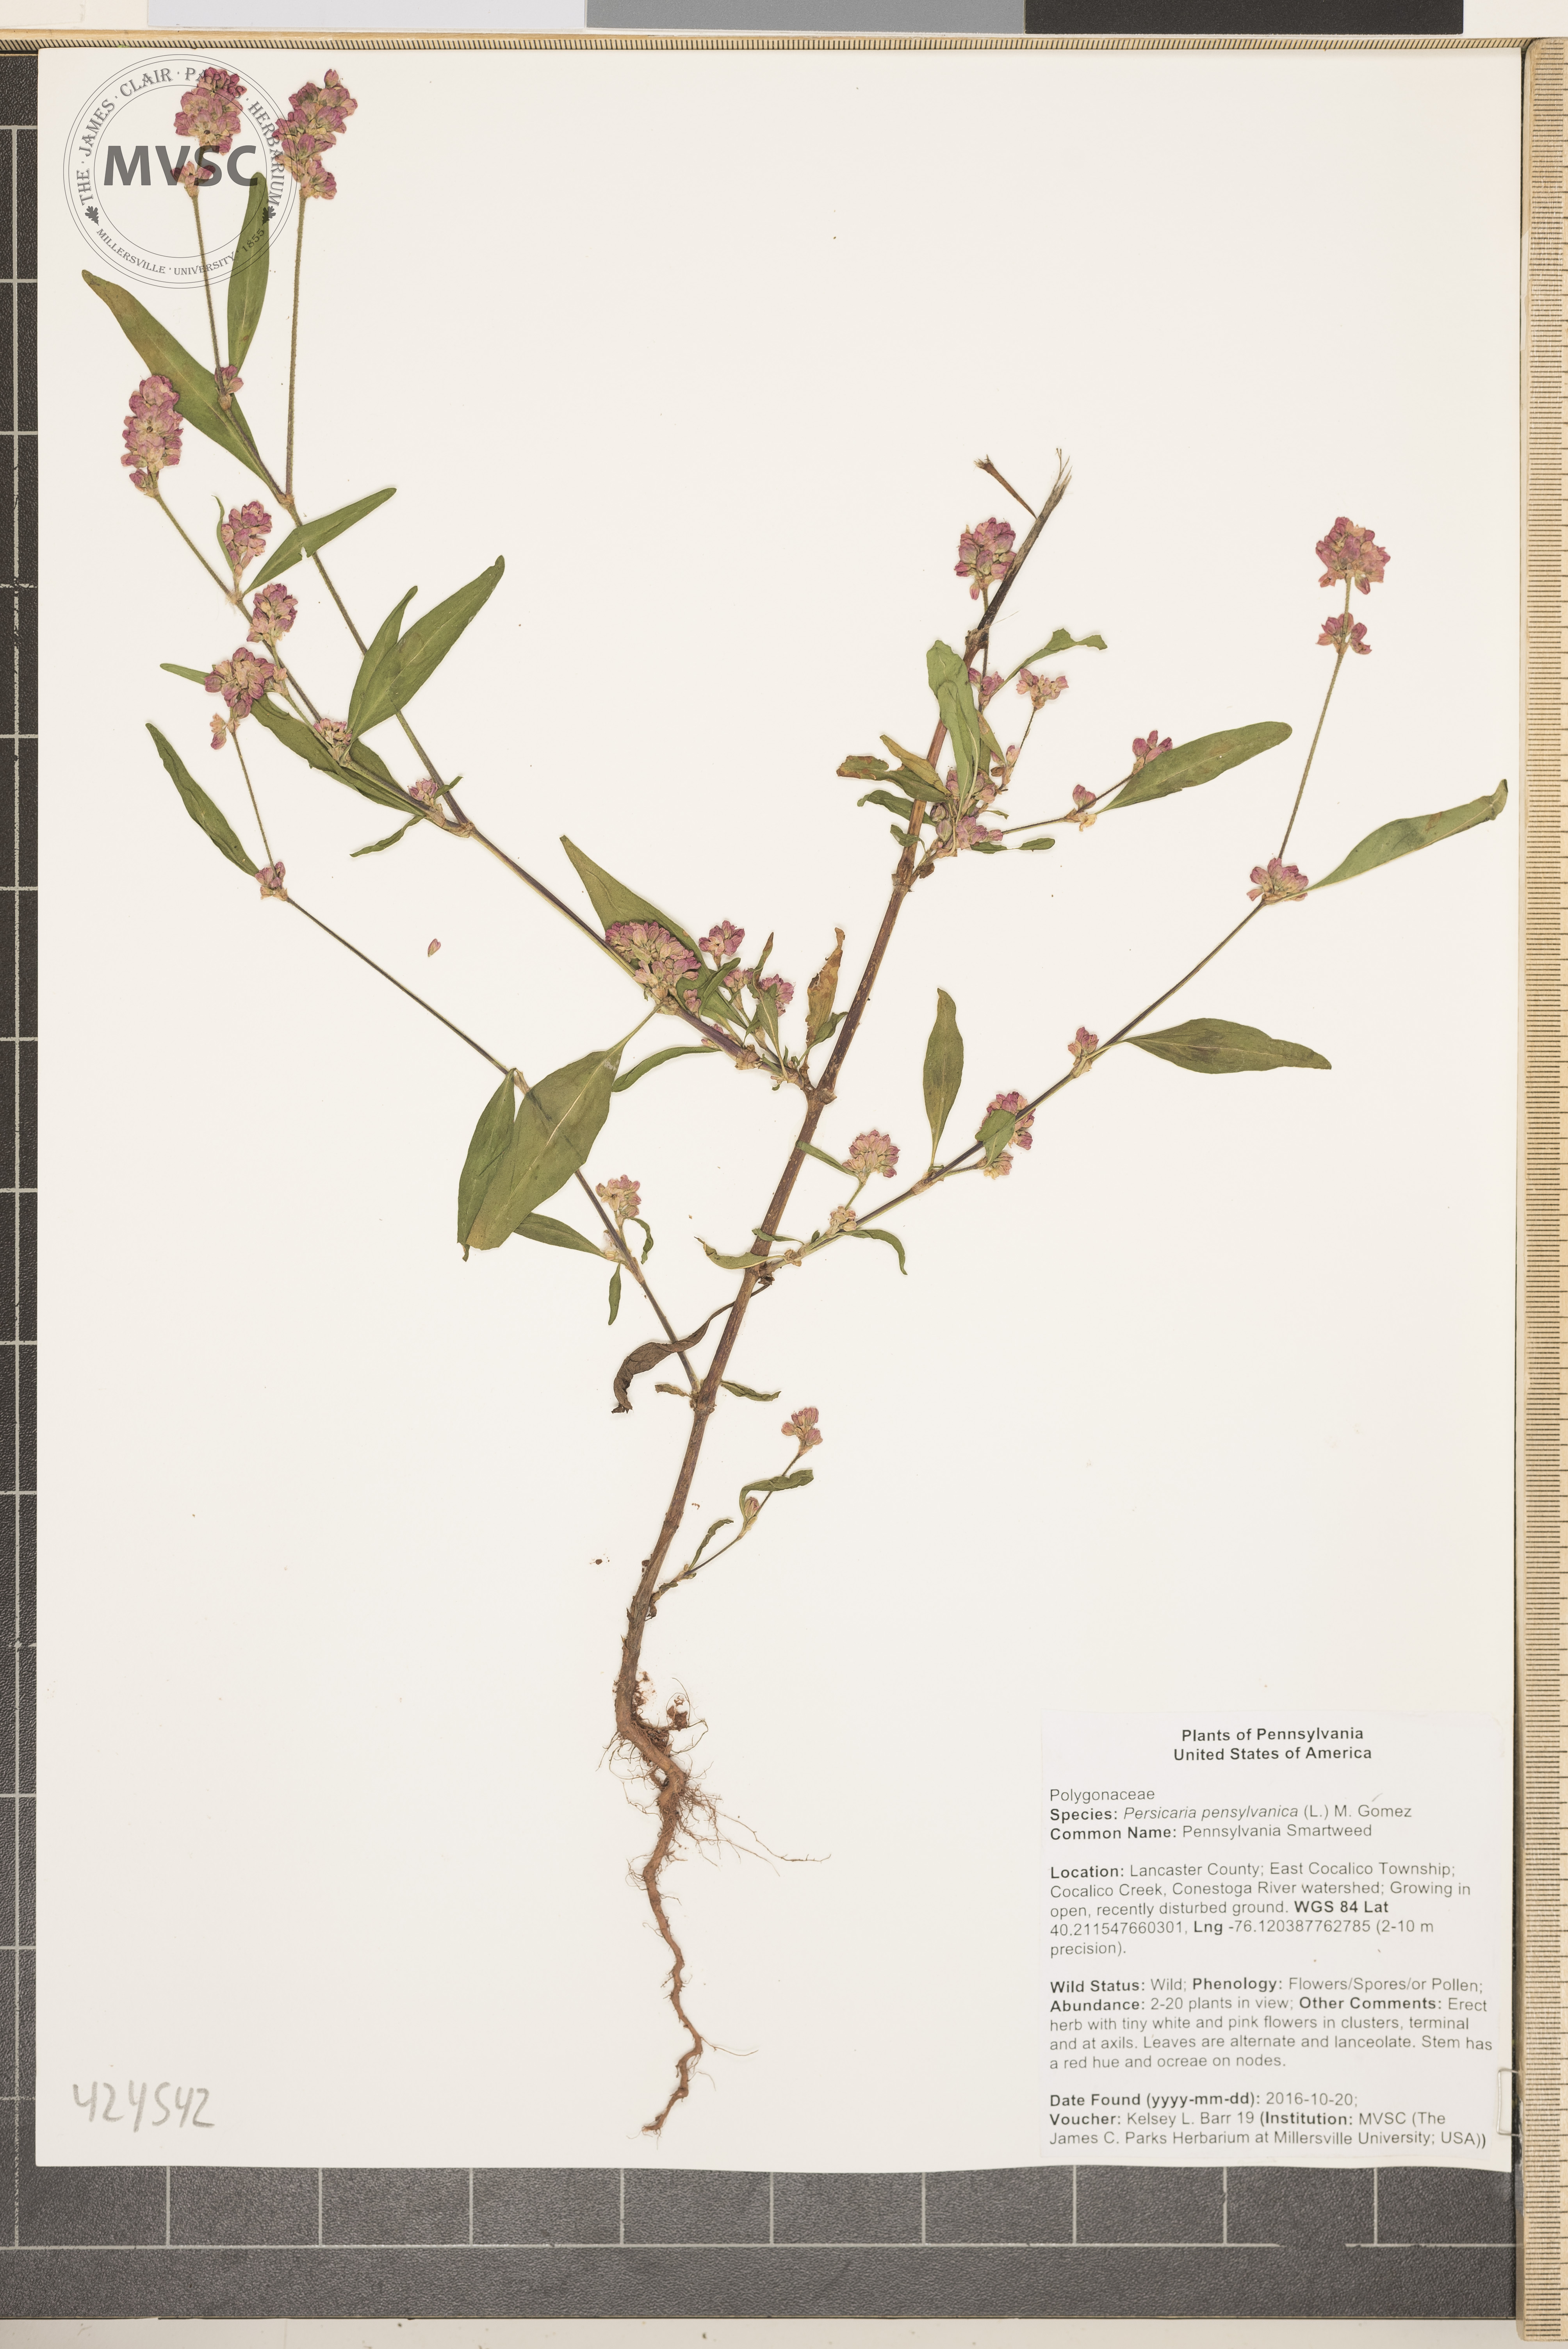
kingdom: Plantae
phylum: Tracheophyta
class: Magnoliopsida
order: Caryophyllales
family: Polygonaceae
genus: Persicaria
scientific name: Persicaria pensylvanica
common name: Pennsylvania Smartweed
